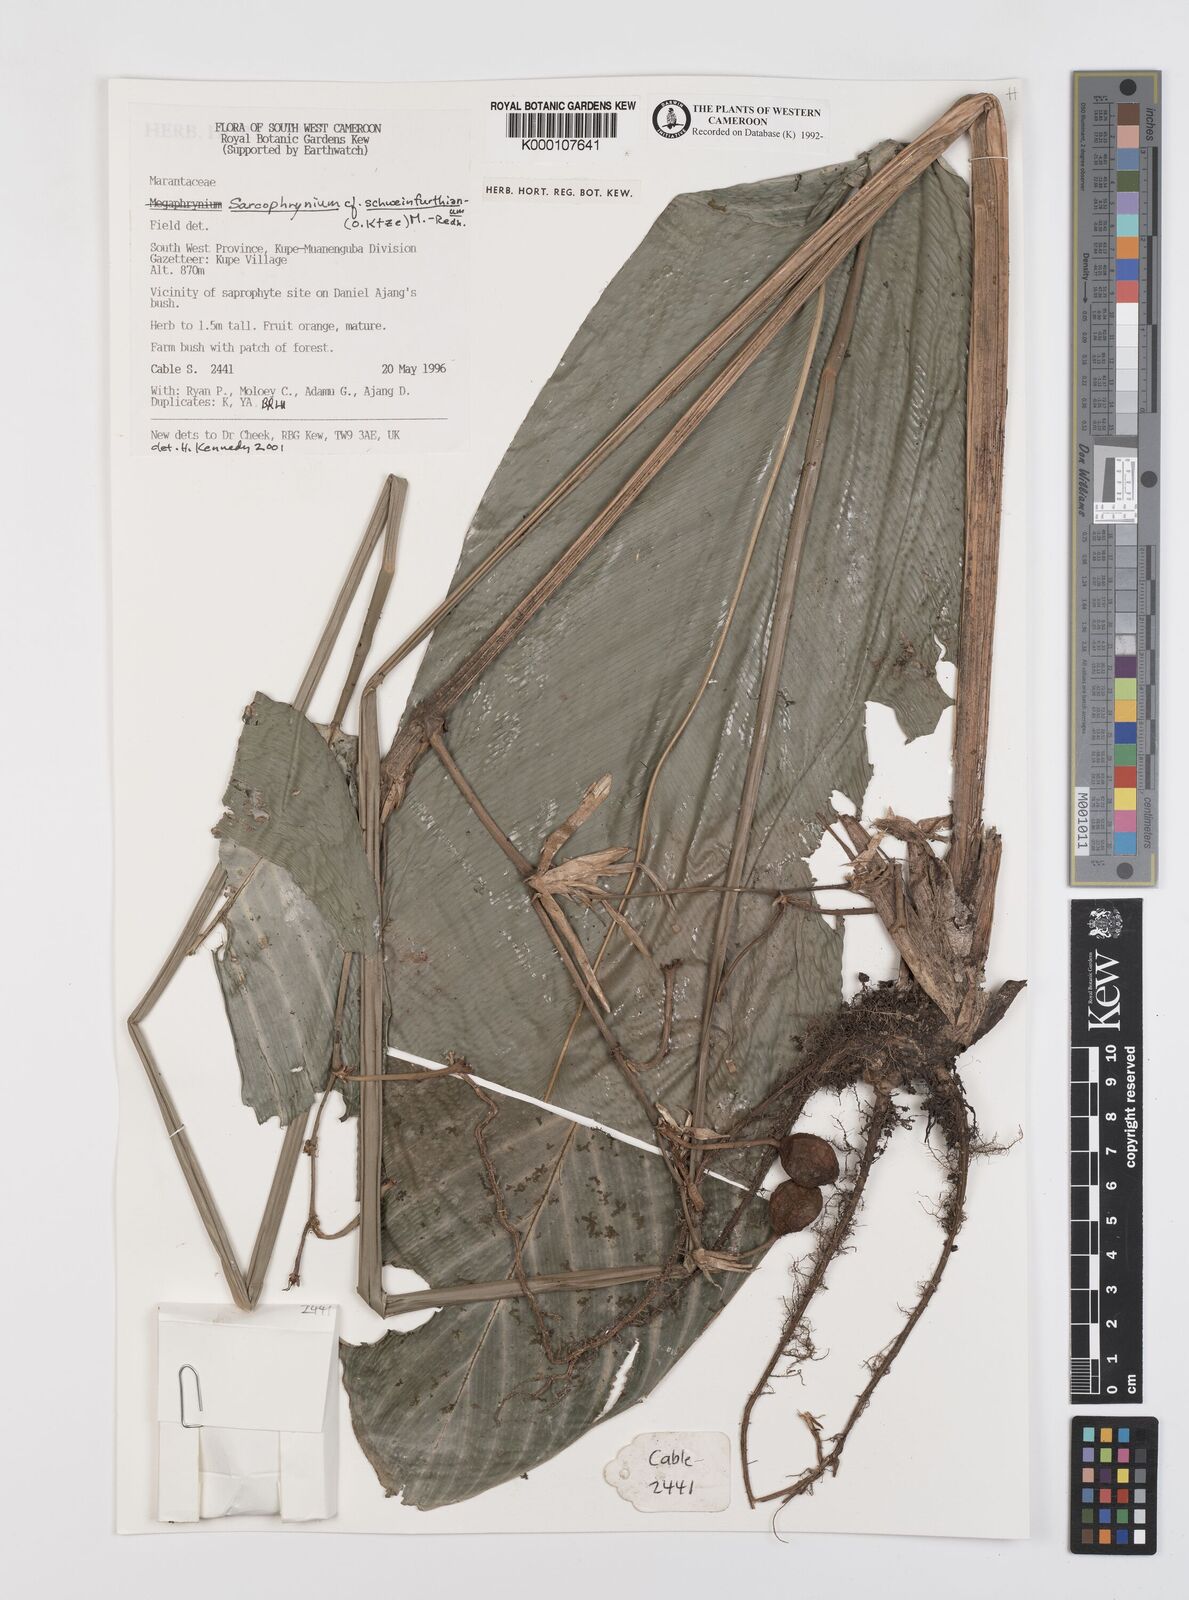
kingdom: Plantae
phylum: Tracheophyta
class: Liliopsida
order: Zingiberales
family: Marantaceae
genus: Sarcophrynium
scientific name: Sarcophrynium schweinfurthianum
